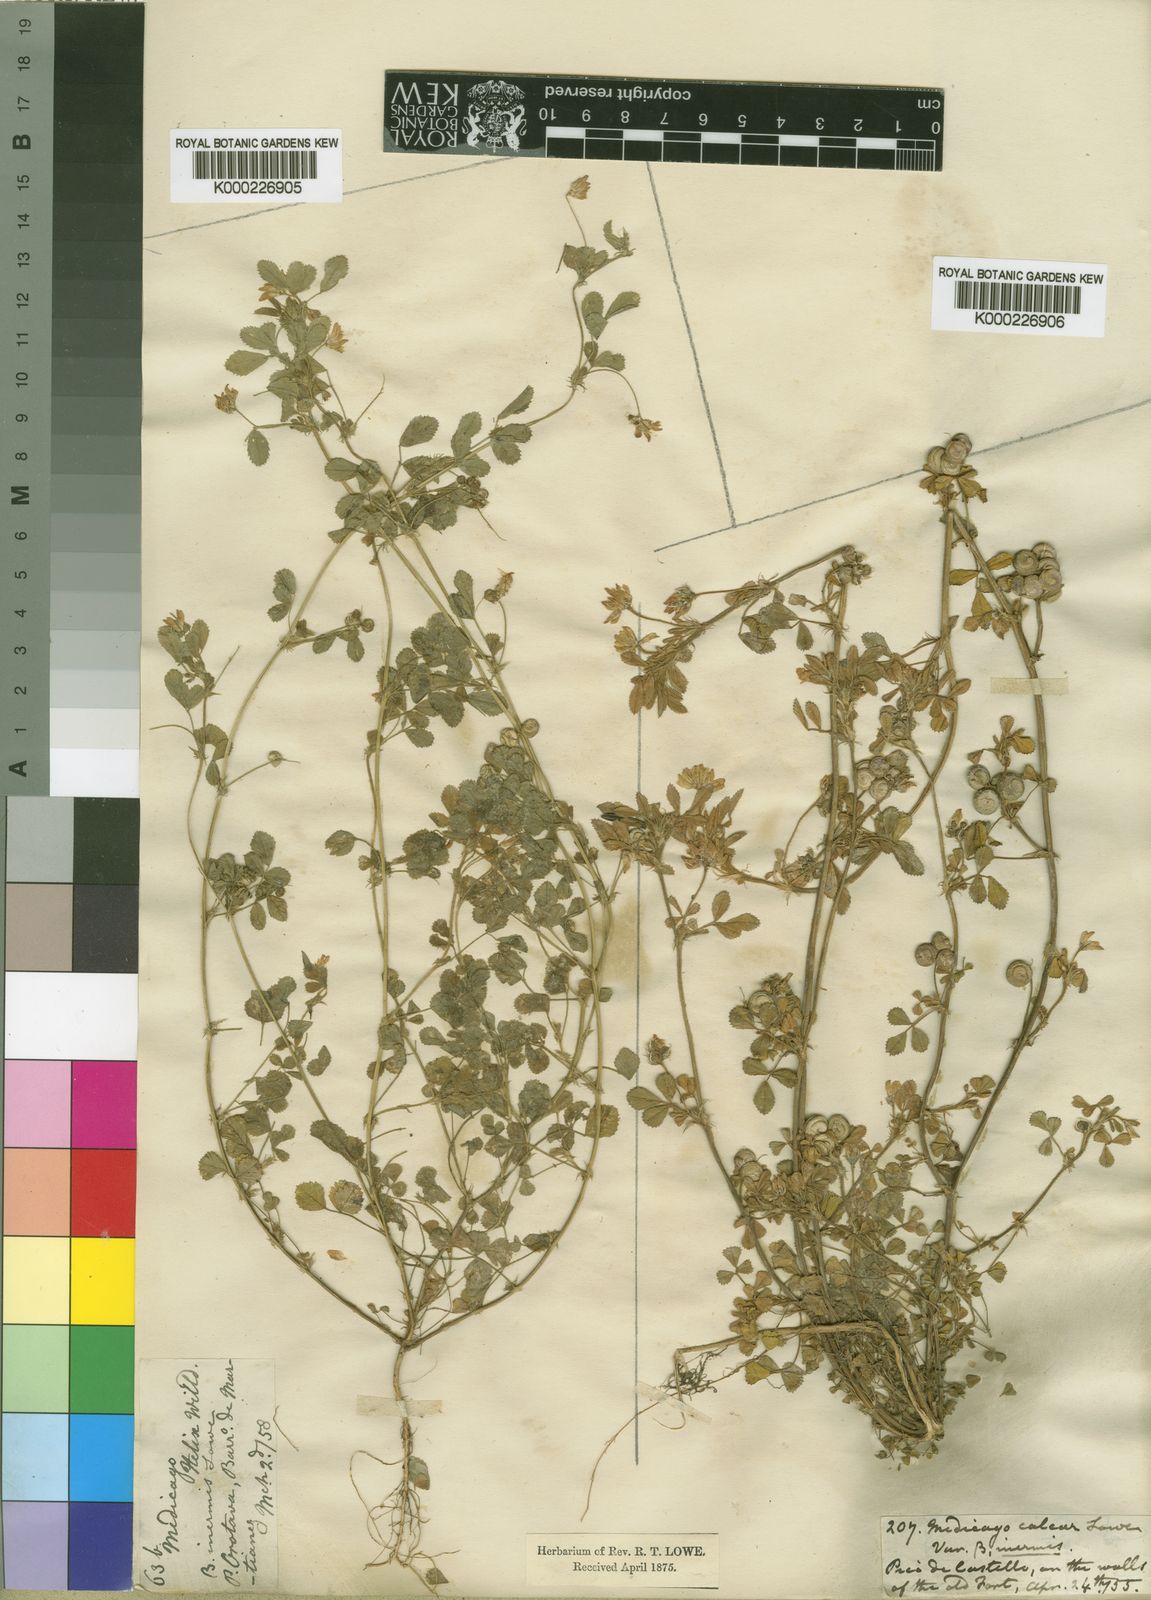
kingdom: Plantae
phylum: Tracheophyta
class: Magnoliopsida
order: Fabales
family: Fabaceae
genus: Medicago
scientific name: Medicago tornata
